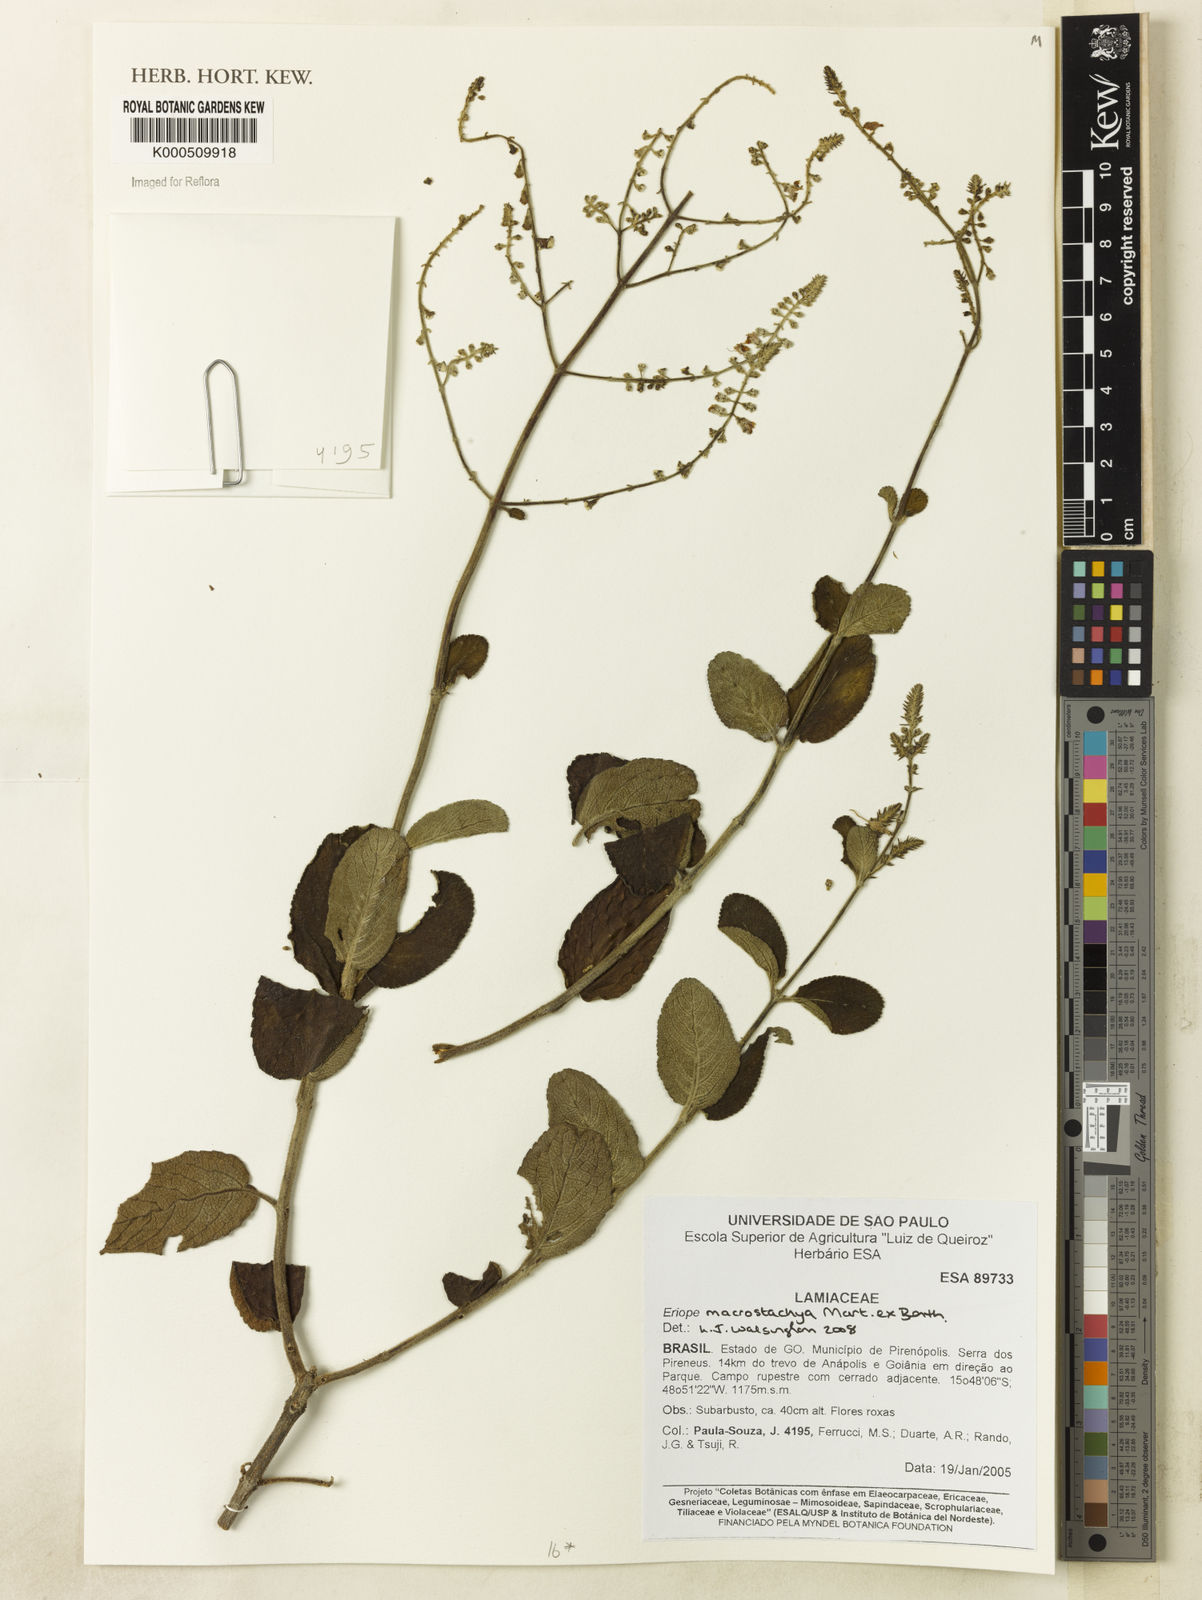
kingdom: Plantae
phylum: Tracheophyta
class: Magnoliopsida
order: Lamiales
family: Lamiaceae
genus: Eriope
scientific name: Eriope macrostachya
